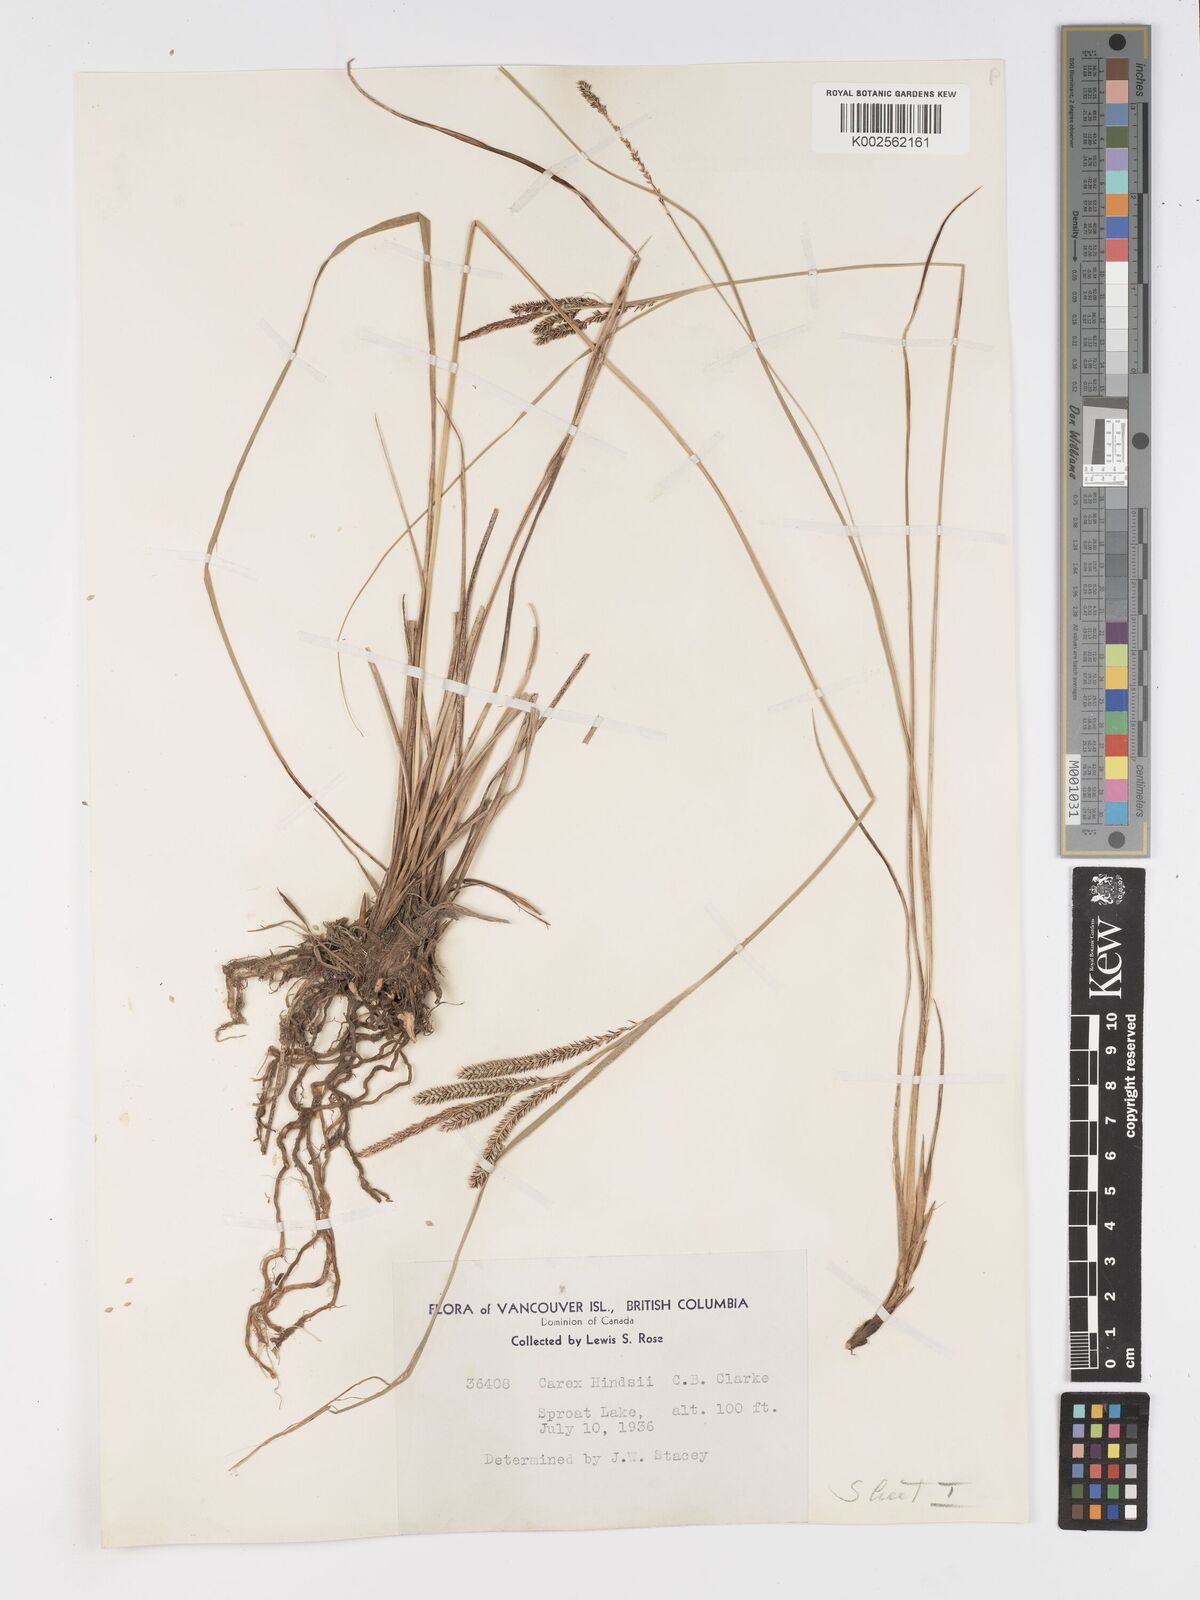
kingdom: Plantae
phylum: Tracheophyta
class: Liliopsida
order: Poales
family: Cyperaceae
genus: Carex
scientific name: Carex kelloggii
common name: Kellogg's sedge
